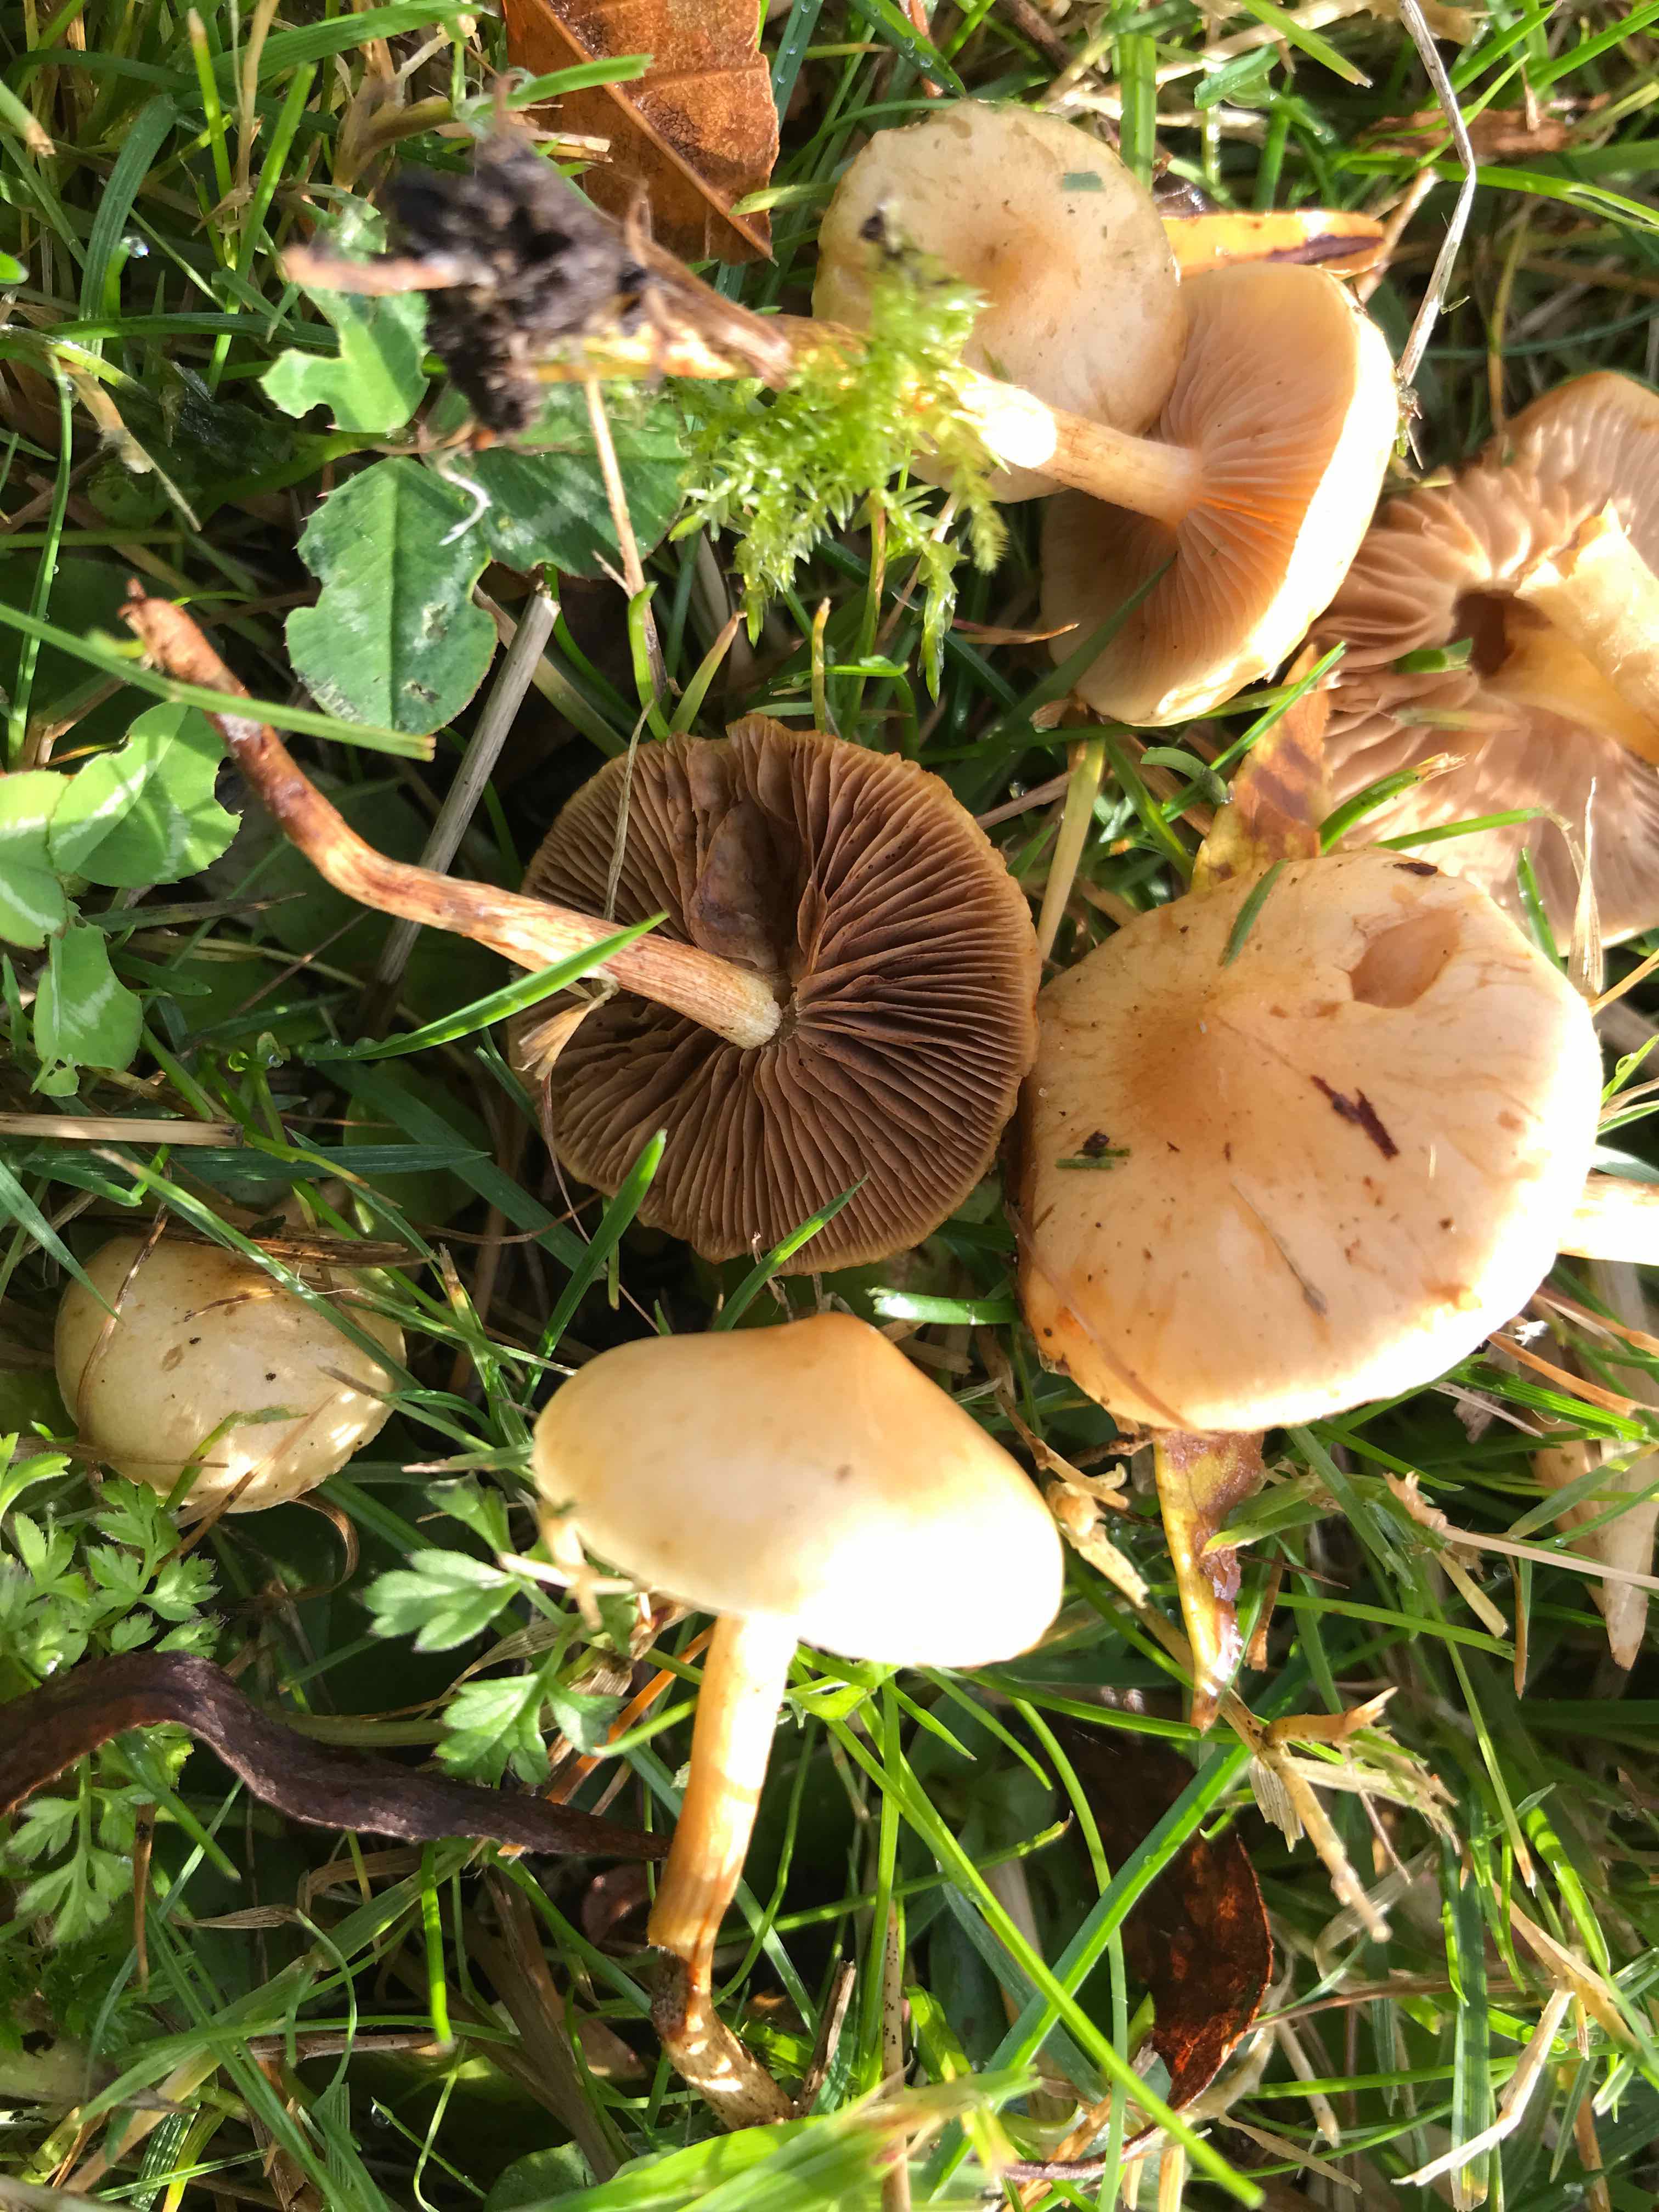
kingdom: Fungi
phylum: Basidiomycota
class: Agaricomycetes
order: Agaricales
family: Strophariaceae
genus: Pholiota
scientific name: Pholiota conissans
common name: pile-skælhat
